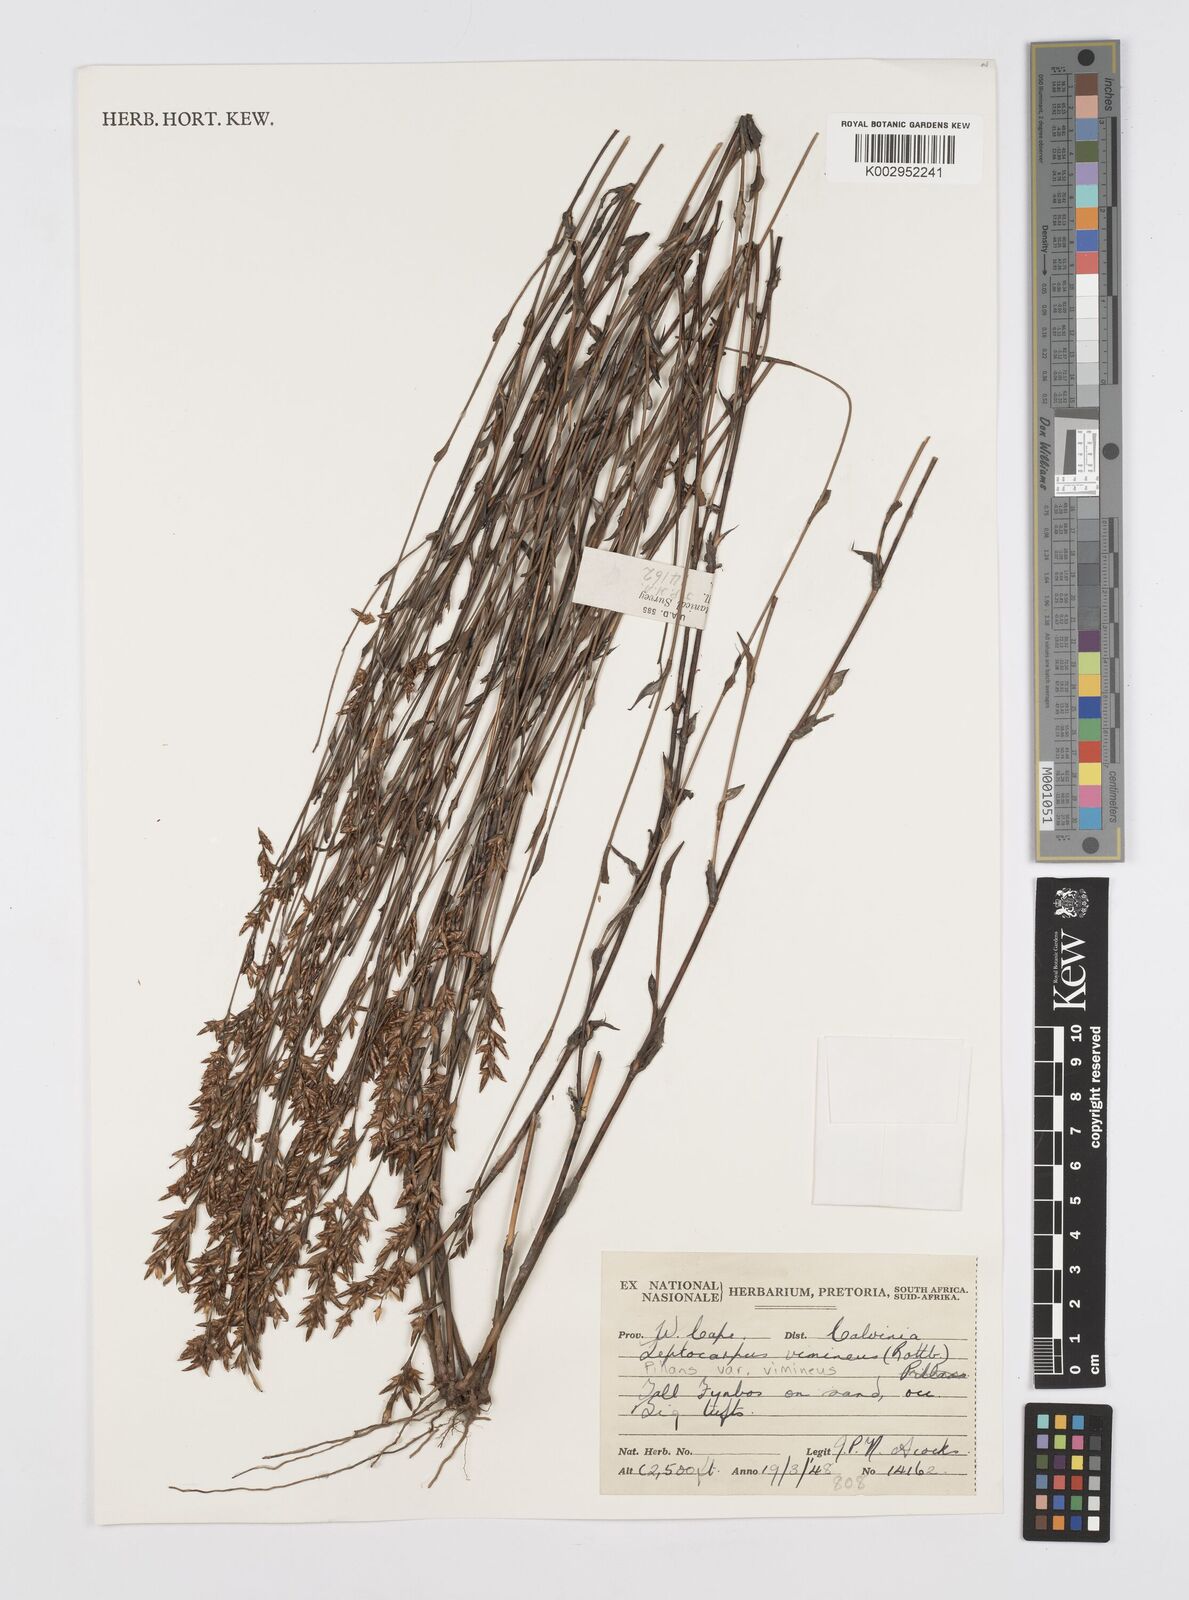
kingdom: Plantae
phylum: Tracheophyta
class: Liliopsida
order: Poales
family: Restionaceae
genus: Restio
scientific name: Restio vimineus
